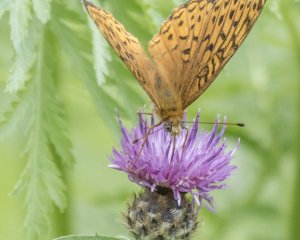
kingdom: Animalia
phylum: Arthropoda
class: Insecta
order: Lepidoptera
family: Nymphalidae
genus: Speyeria
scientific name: Speyeria atlantis
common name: Atlantis Fritillary
